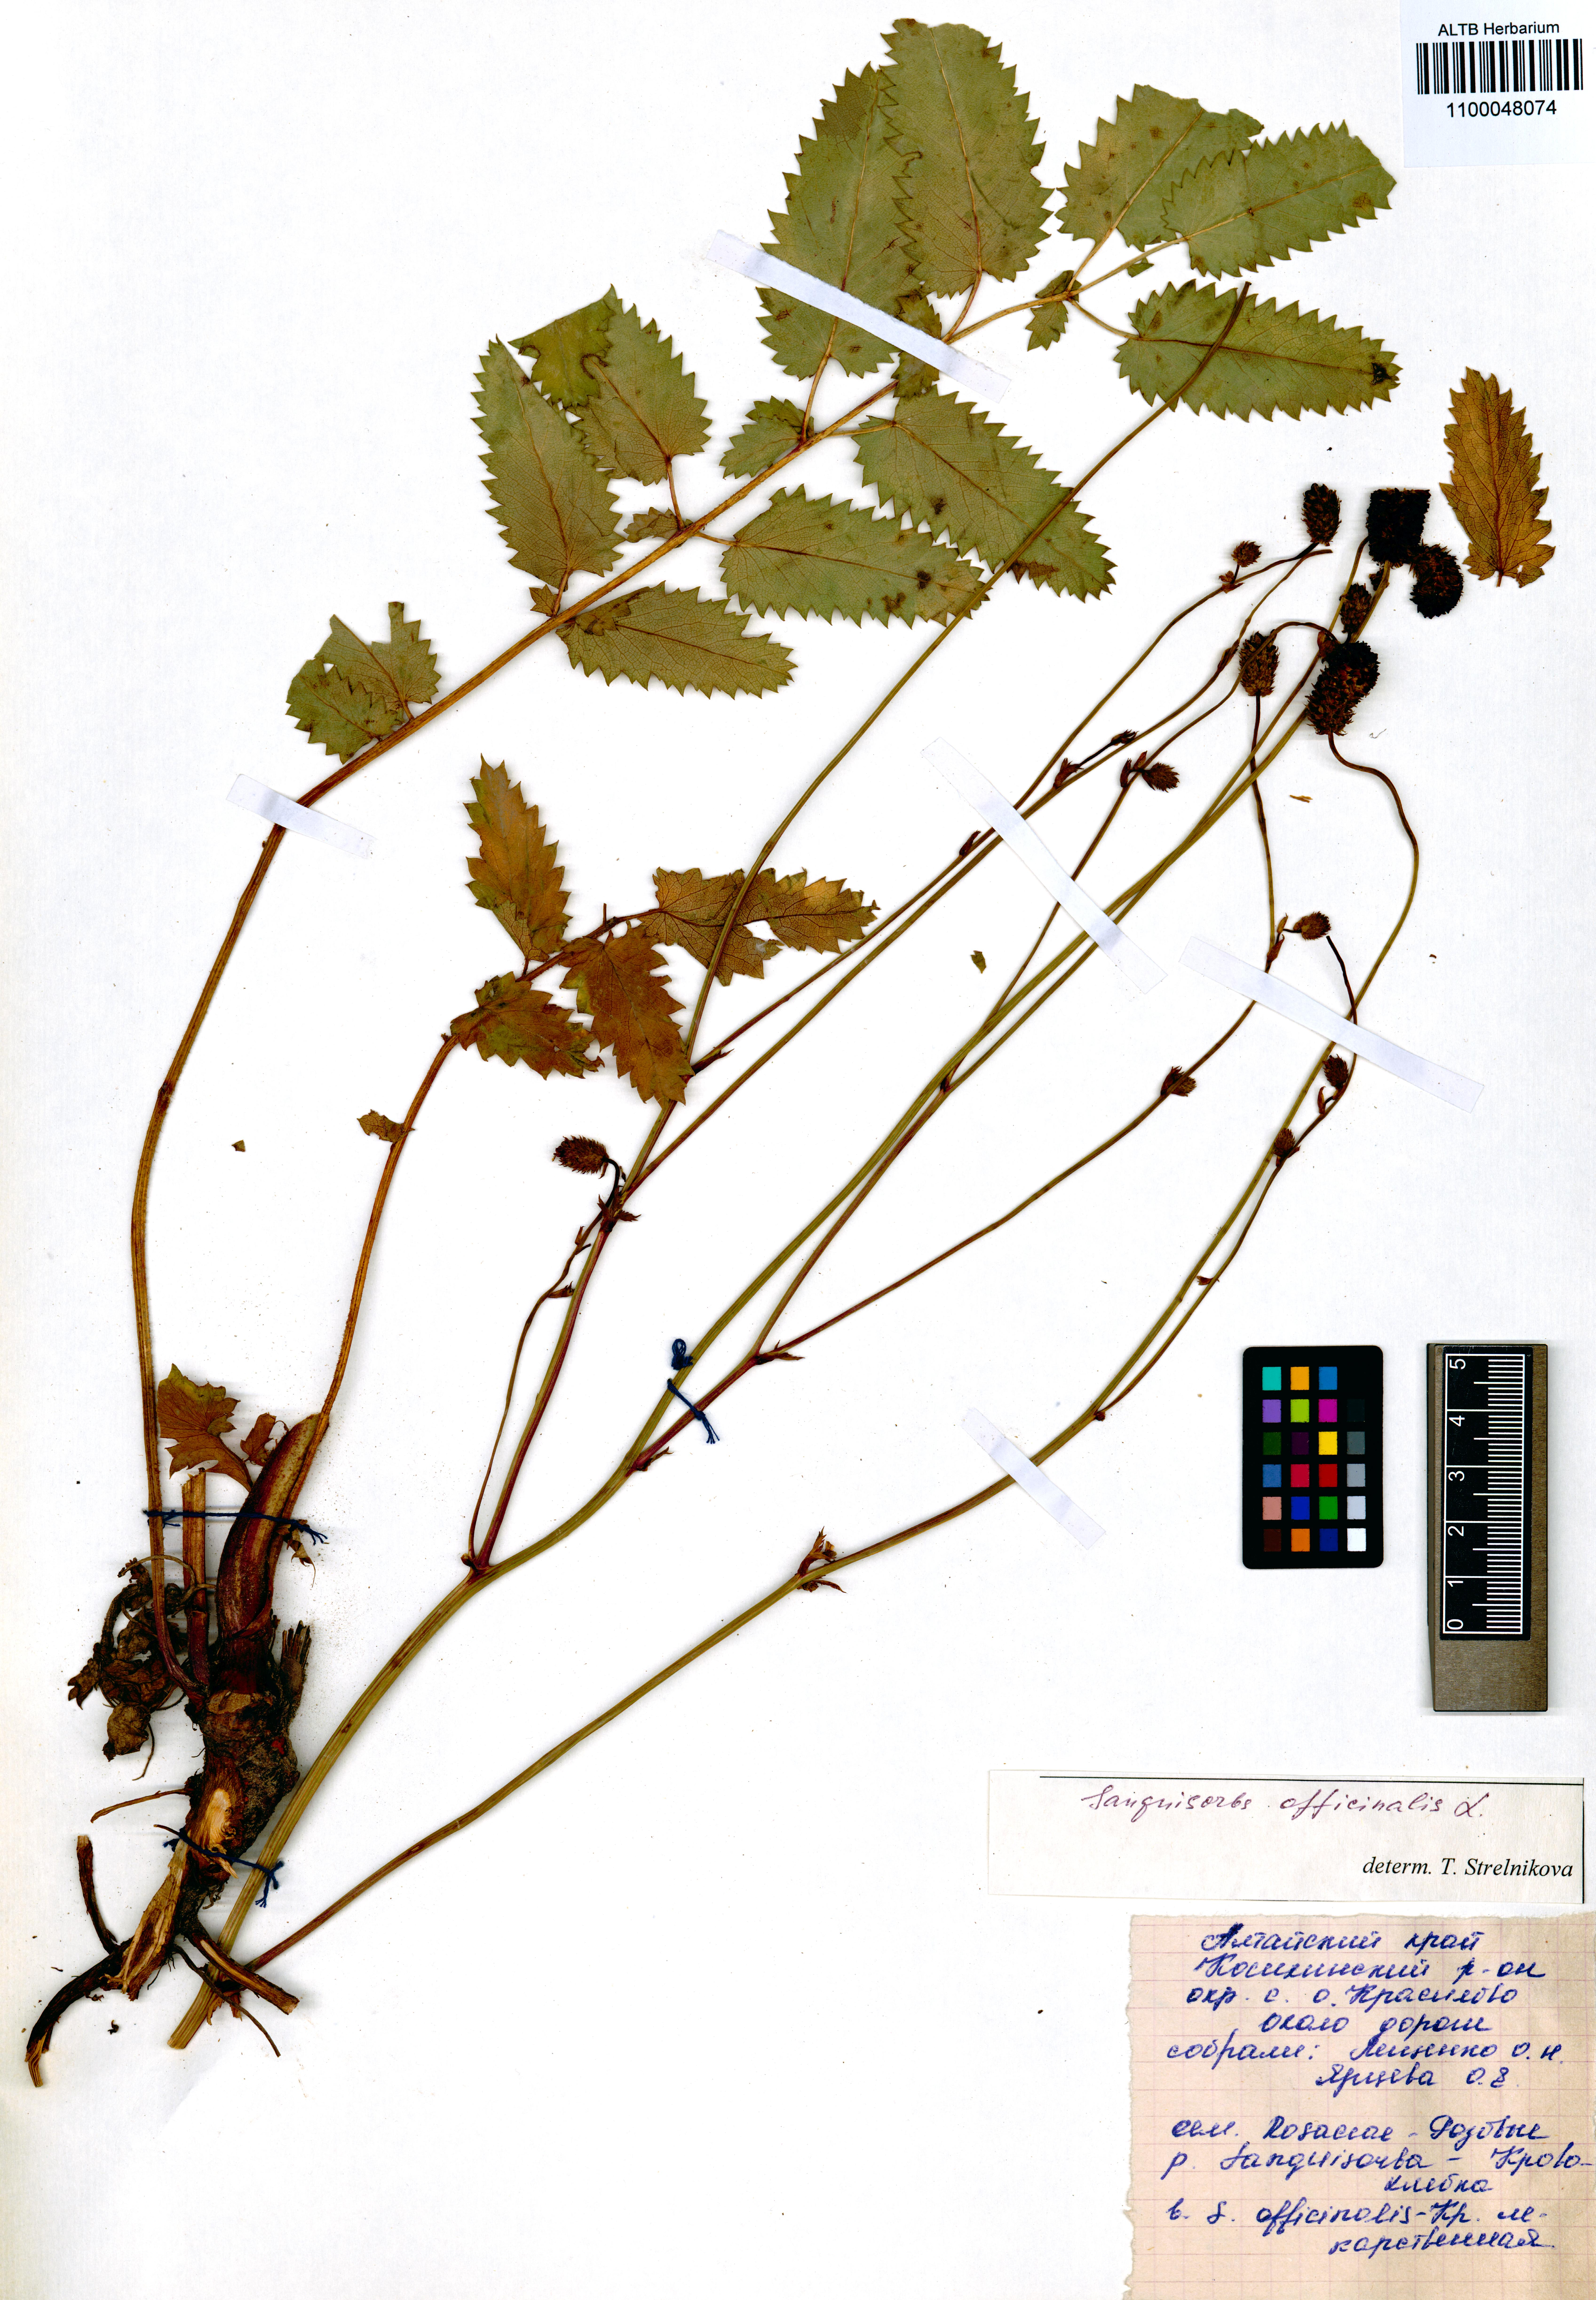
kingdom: Plantae
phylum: Tracheophyta
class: Magnoliopsida
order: Rosales
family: Rosaceae
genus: Sanguisorba
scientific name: Sanguisorba officinalis
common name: Great burnet
